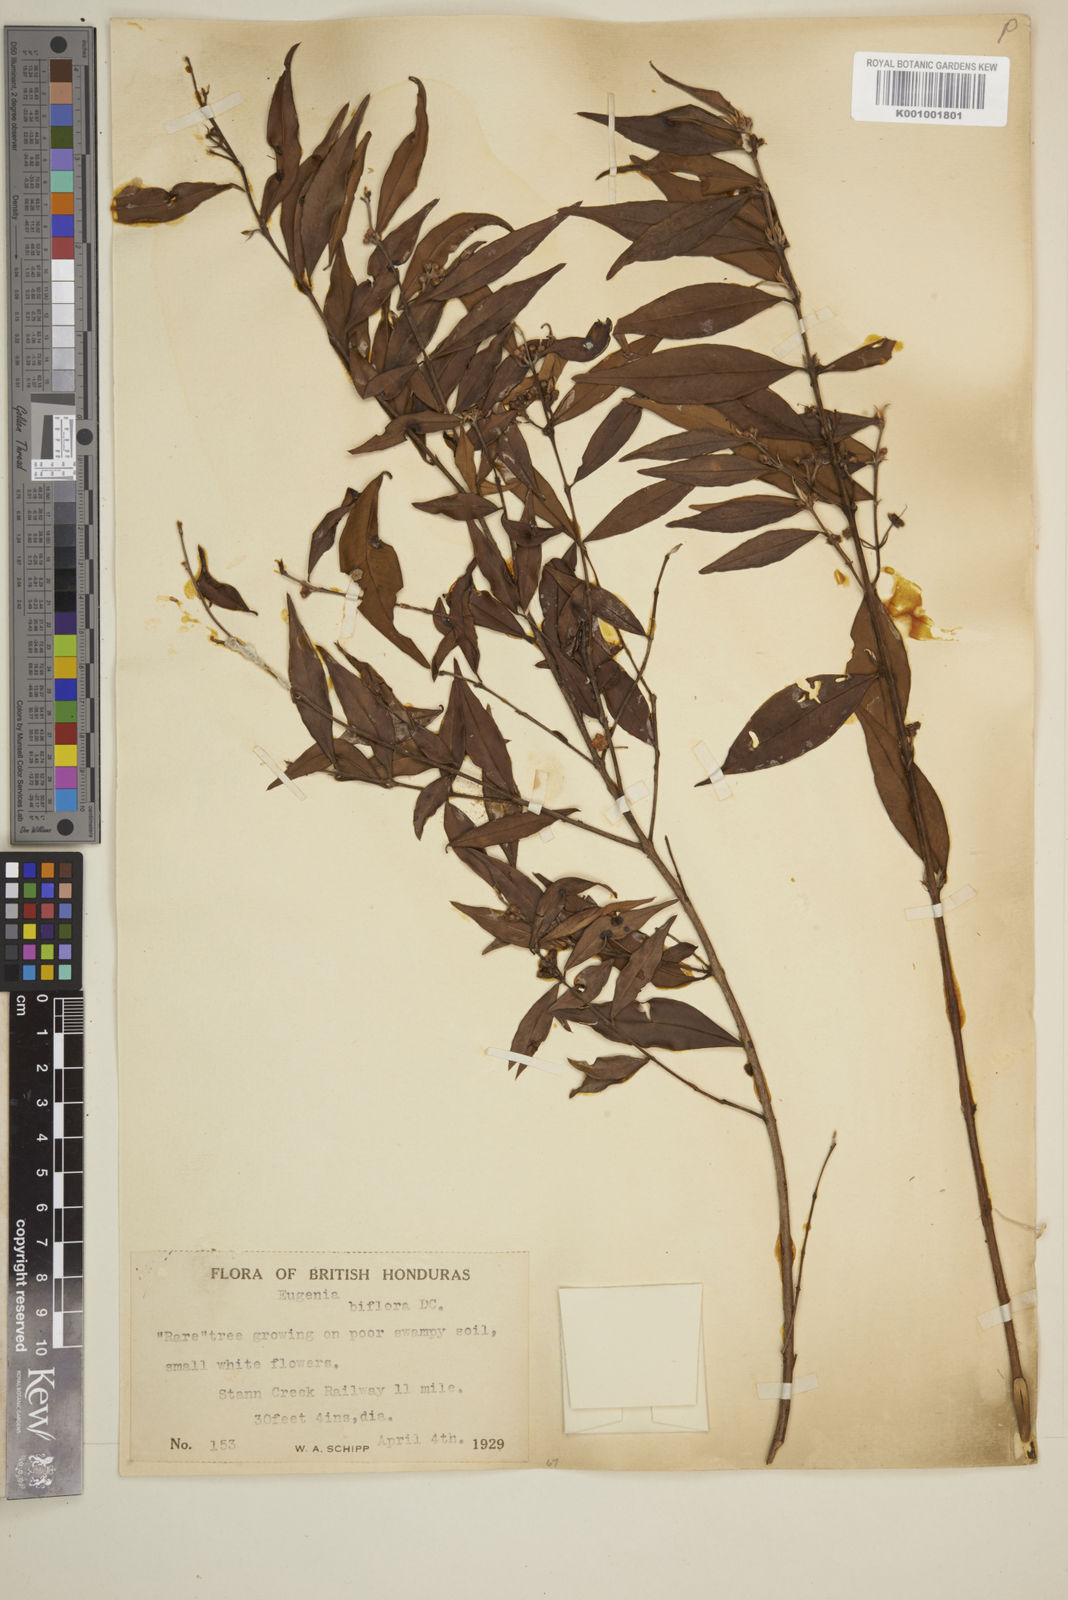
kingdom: Plantae
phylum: Tracheophyta
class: Magnoliopsida
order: Myrtales
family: Myrtaceae
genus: Eugenia
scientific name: Eugenia biflora
